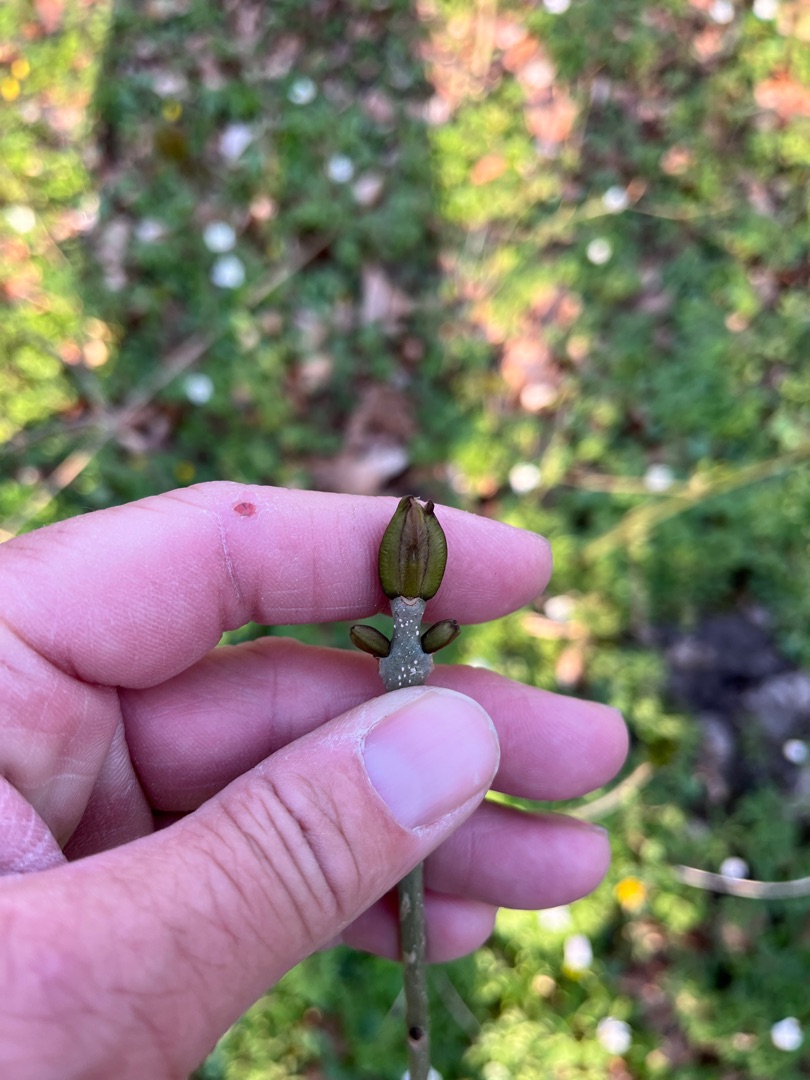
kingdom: Plantae
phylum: Tracheophyta
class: Magnoliopsida
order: Lamiales
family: Oleaceae
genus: Fraxinus
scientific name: Fraxinus excelsior
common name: Ask
